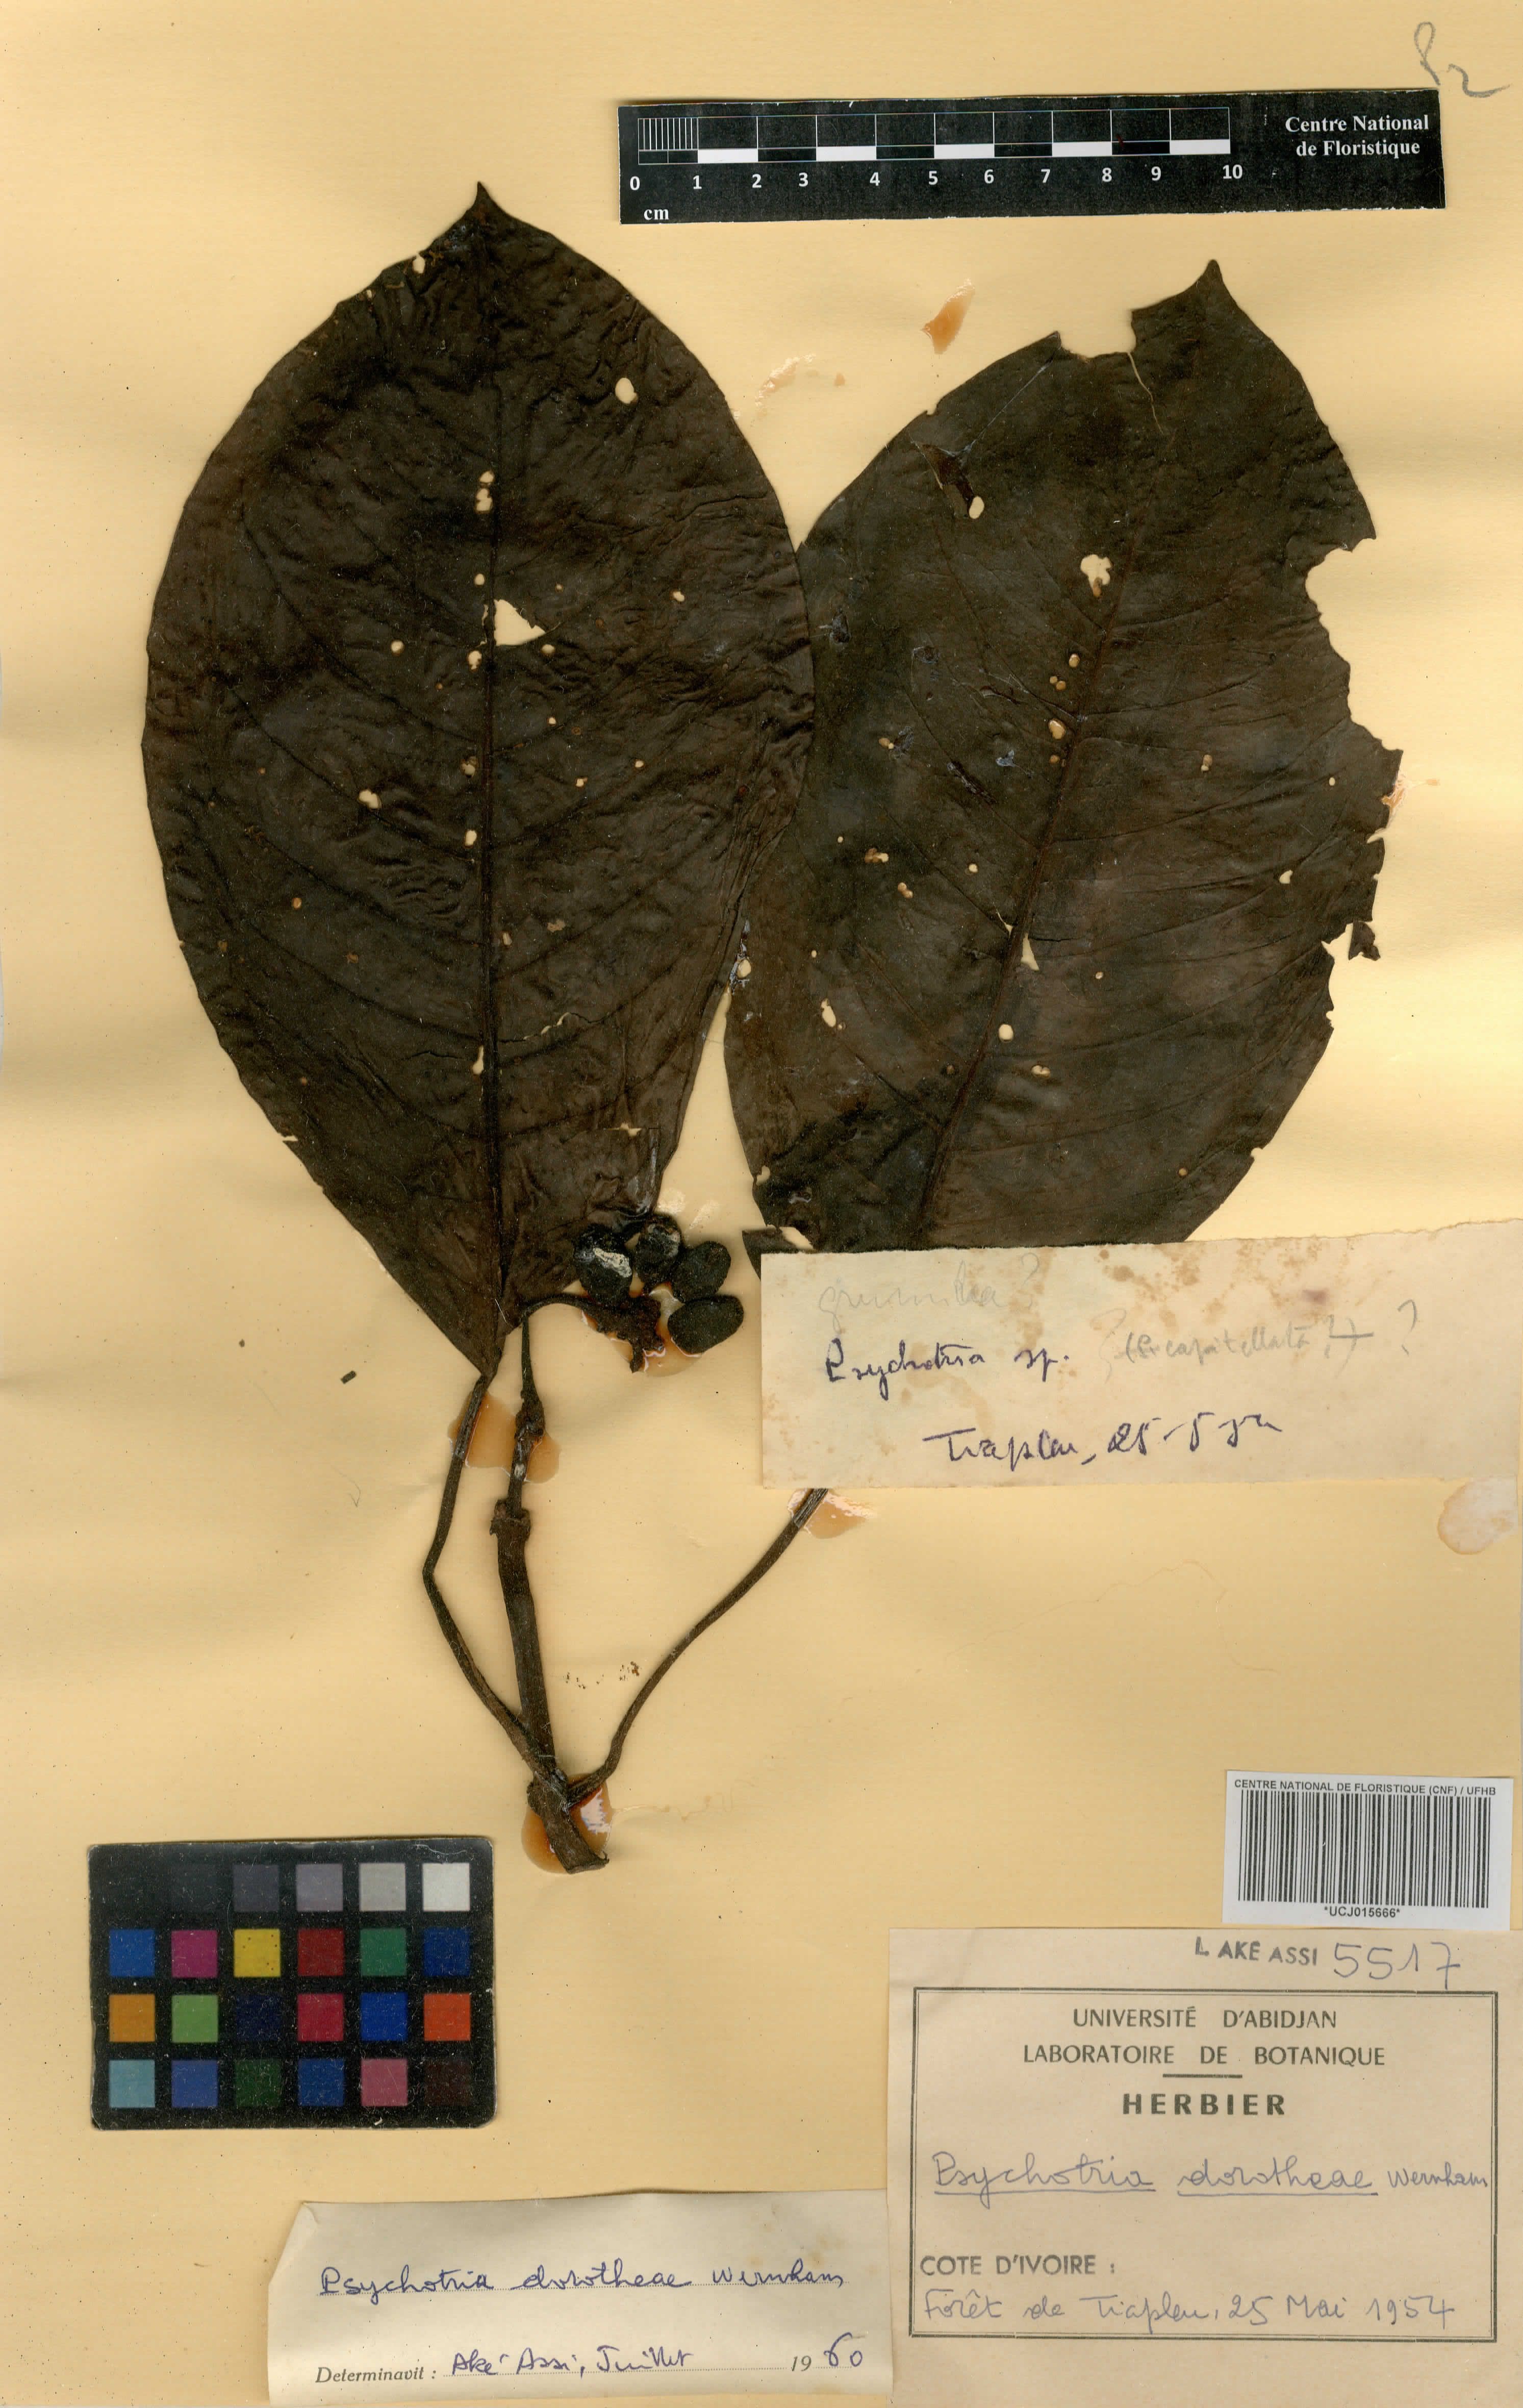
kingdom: Plantae
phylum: Tracheophyta
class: Magnoliopsida
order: Gentianales
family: Rubiaceae
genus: Psychotria
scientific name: Psychotria dorotheae
